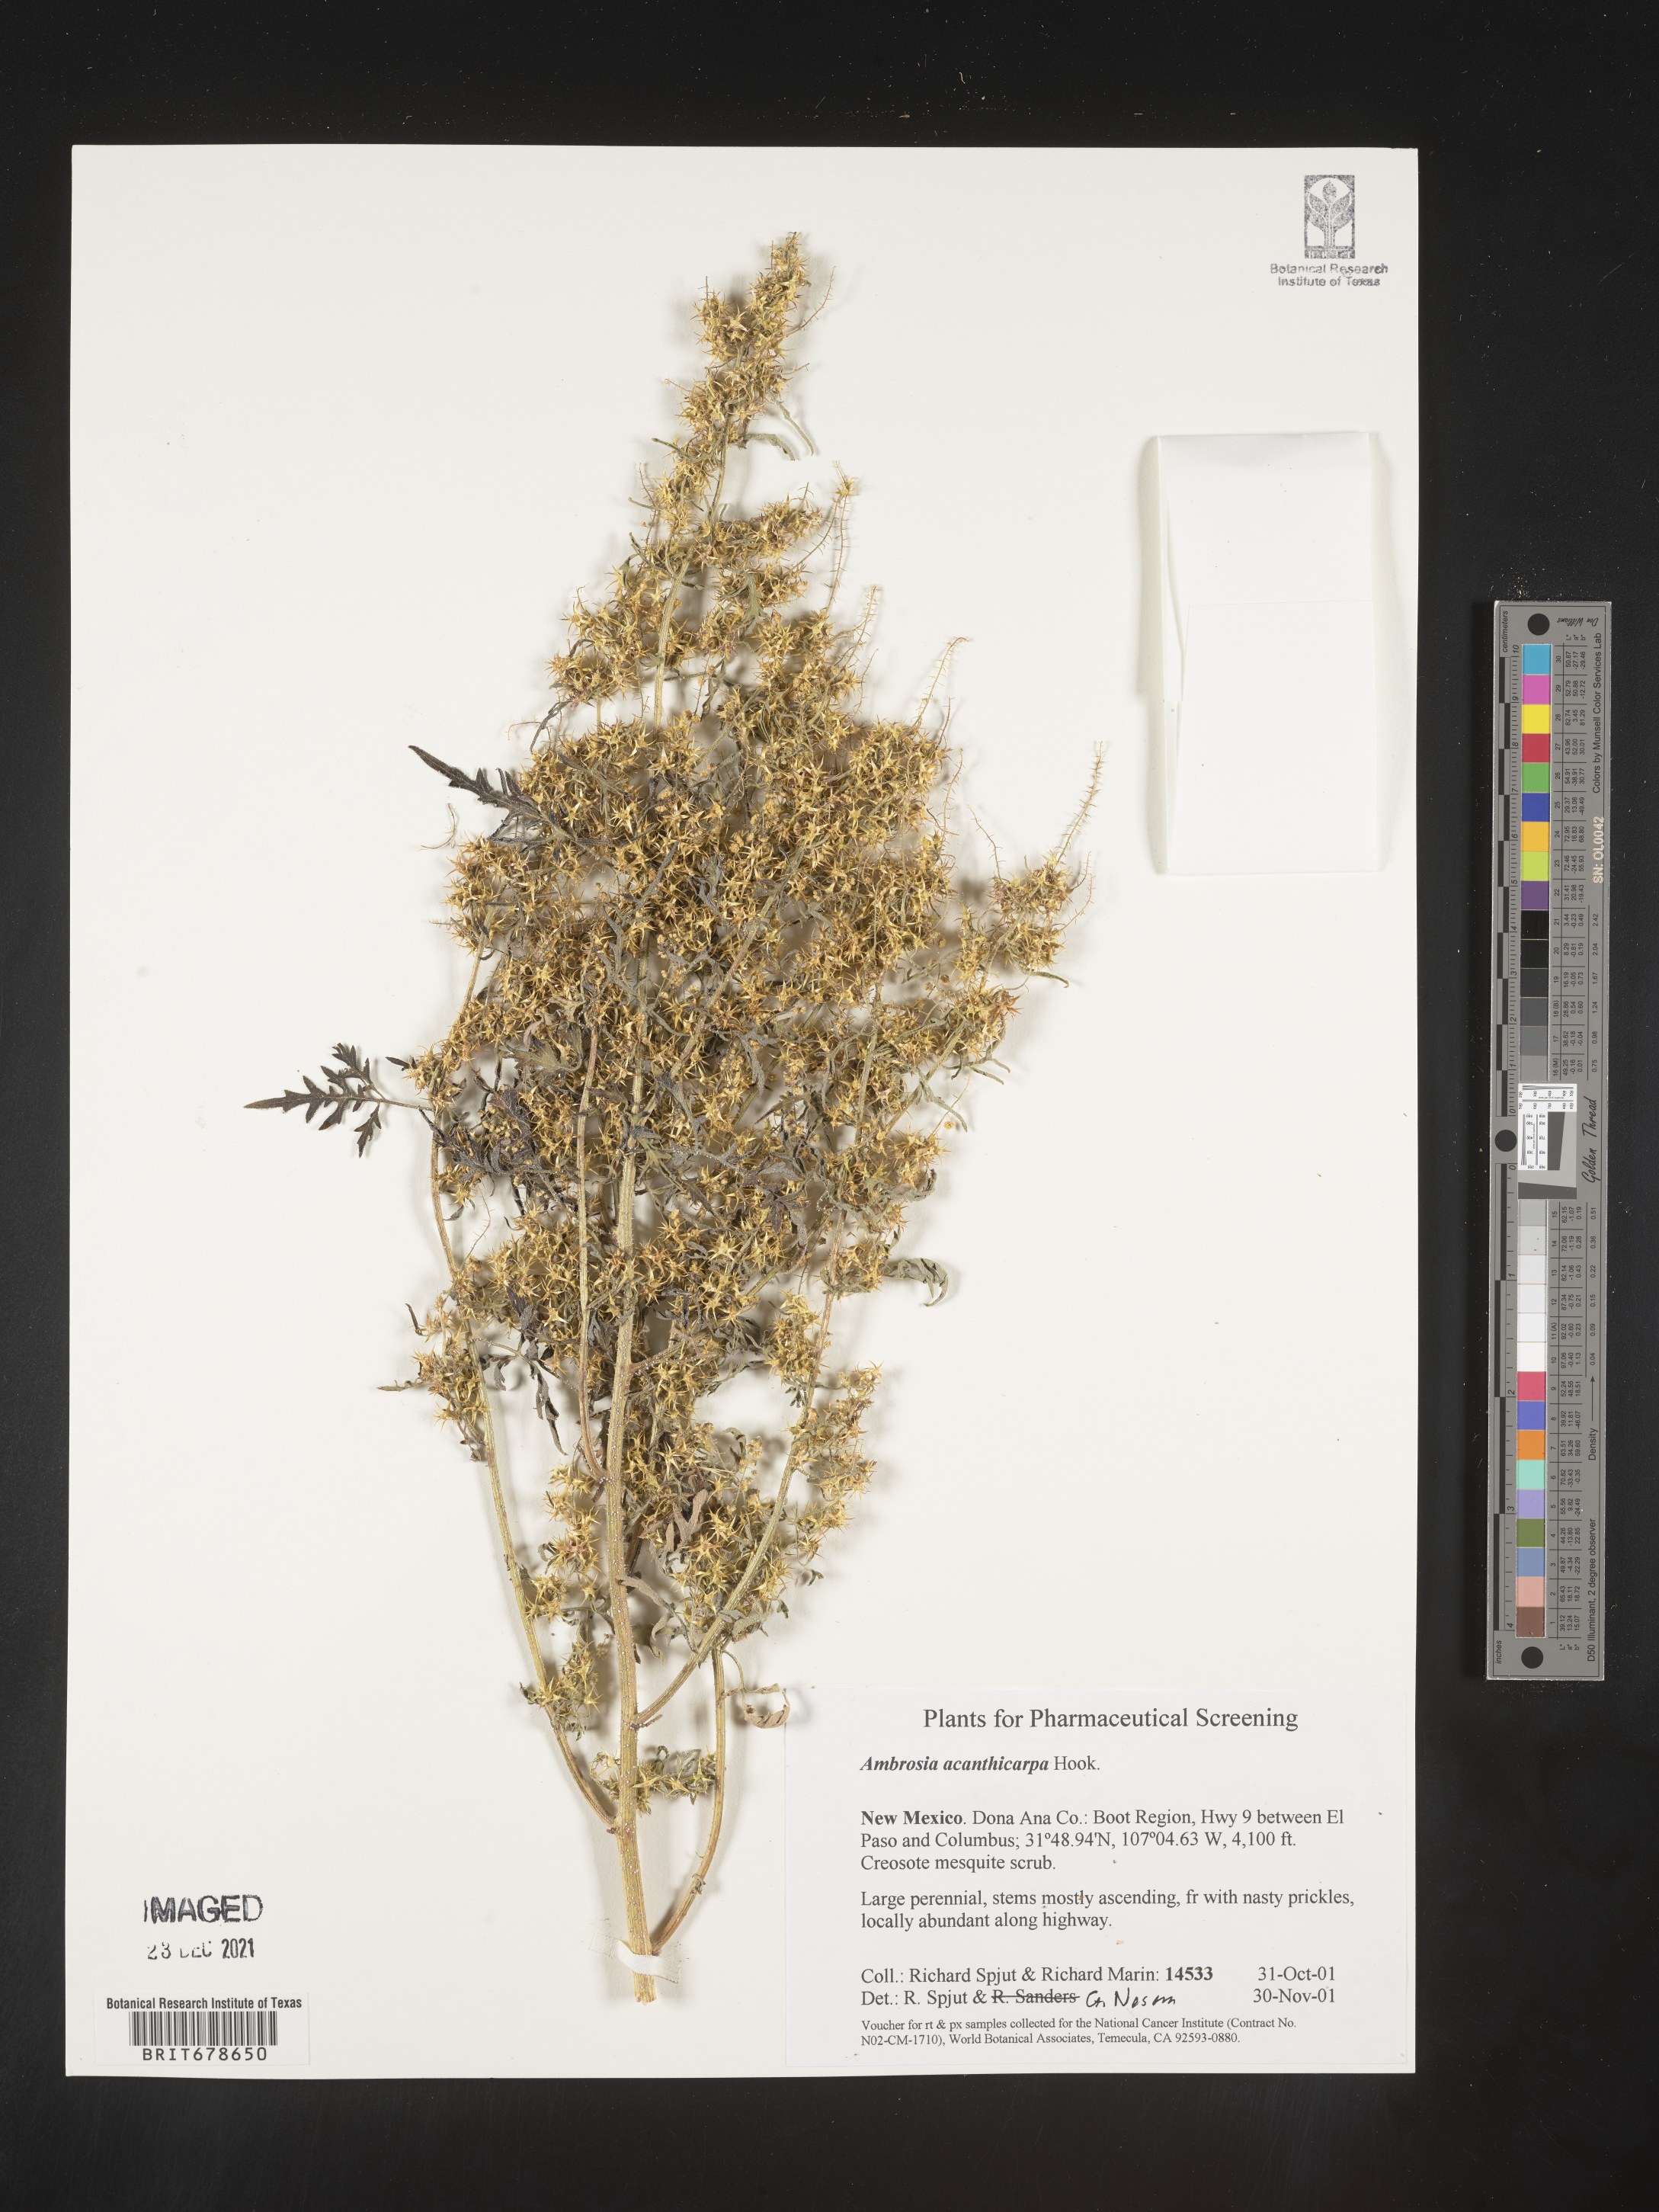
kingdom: Plantae
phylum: Tracheophyta
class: Magnoliopsida
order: Asterales
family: Asteraceae
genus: Ambrosia
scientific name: Ambrosia acanthicarpa
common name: Hooker's bur ragweed
